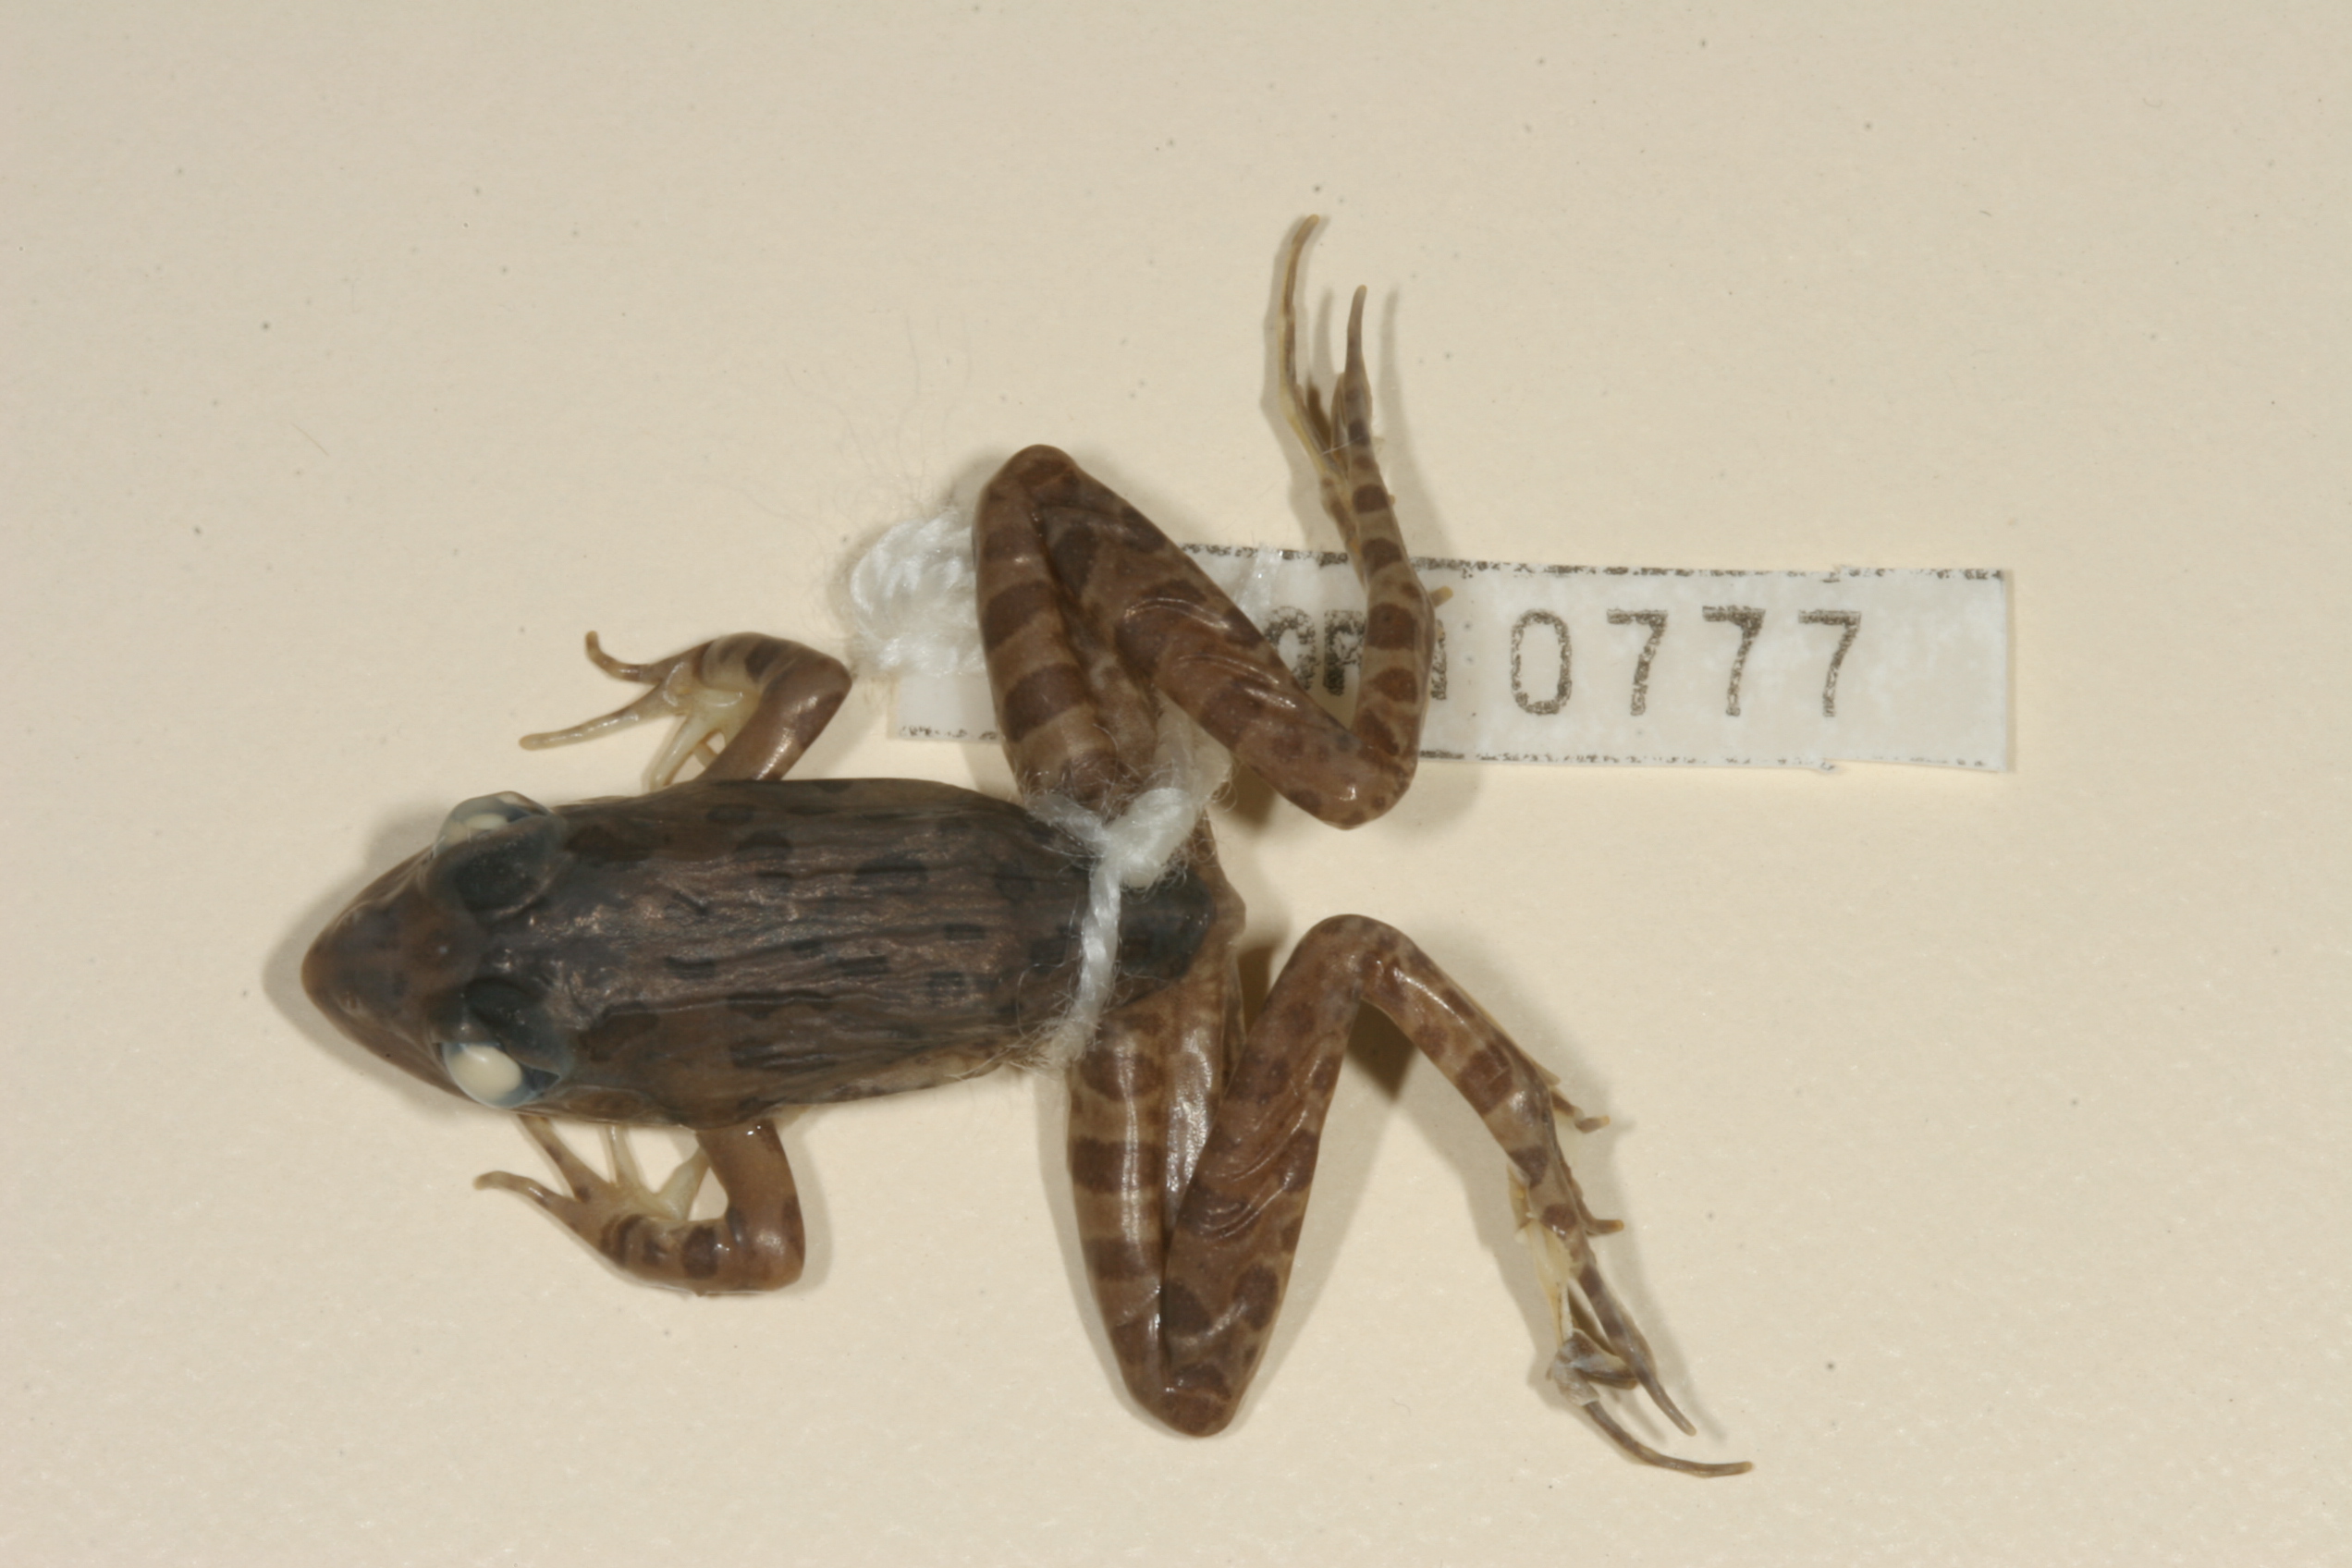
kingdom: Animalia
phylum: Chordata
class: Amphibia
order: Anura
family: Pyxicephalidae
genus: Amietia
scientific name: Amietia angolensis
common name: Dusky-throated frog
